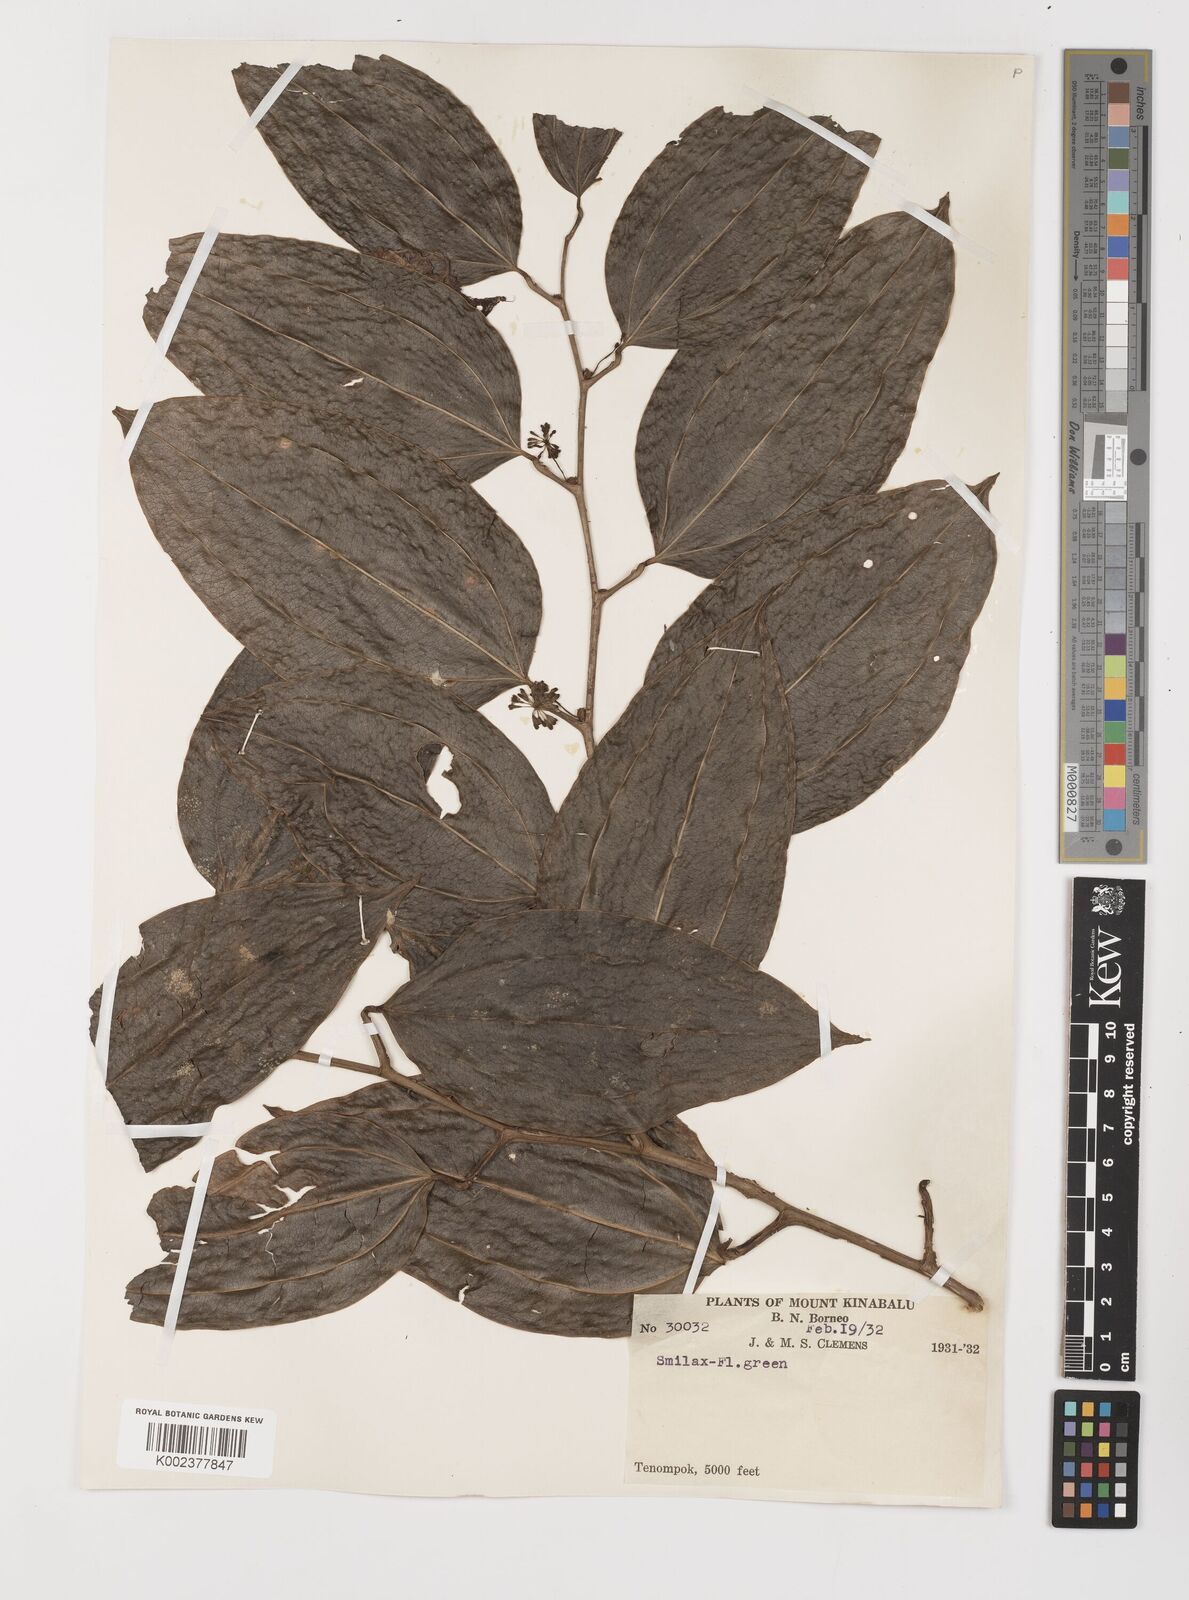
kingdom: Plantae
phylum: Tracheophyta
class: Liliopsida
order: Liliales
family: Smilacaceae
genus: Smilax
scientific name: Smilax
